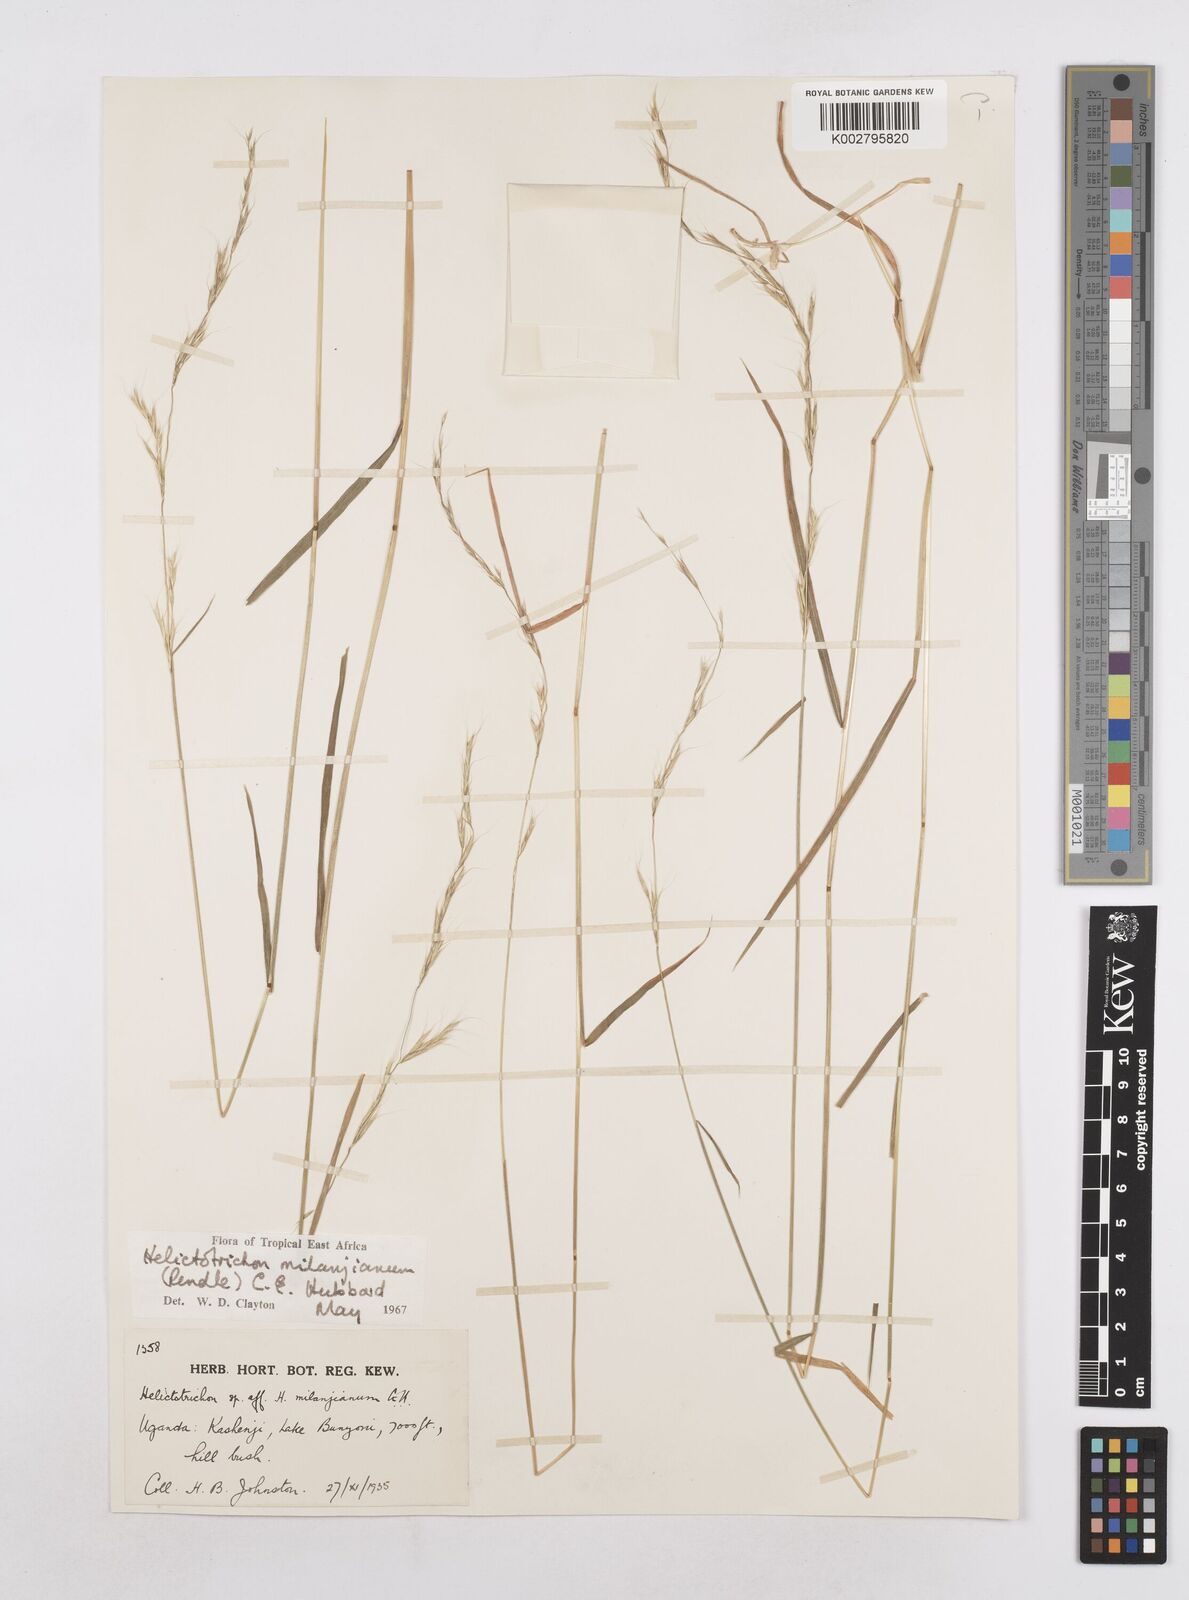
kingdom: Plantae
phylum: Tracheophyta
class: Liliopsida
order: Poales
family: Poaceae
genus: Trisetopsis
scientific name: Trisetopsis milanjiana
